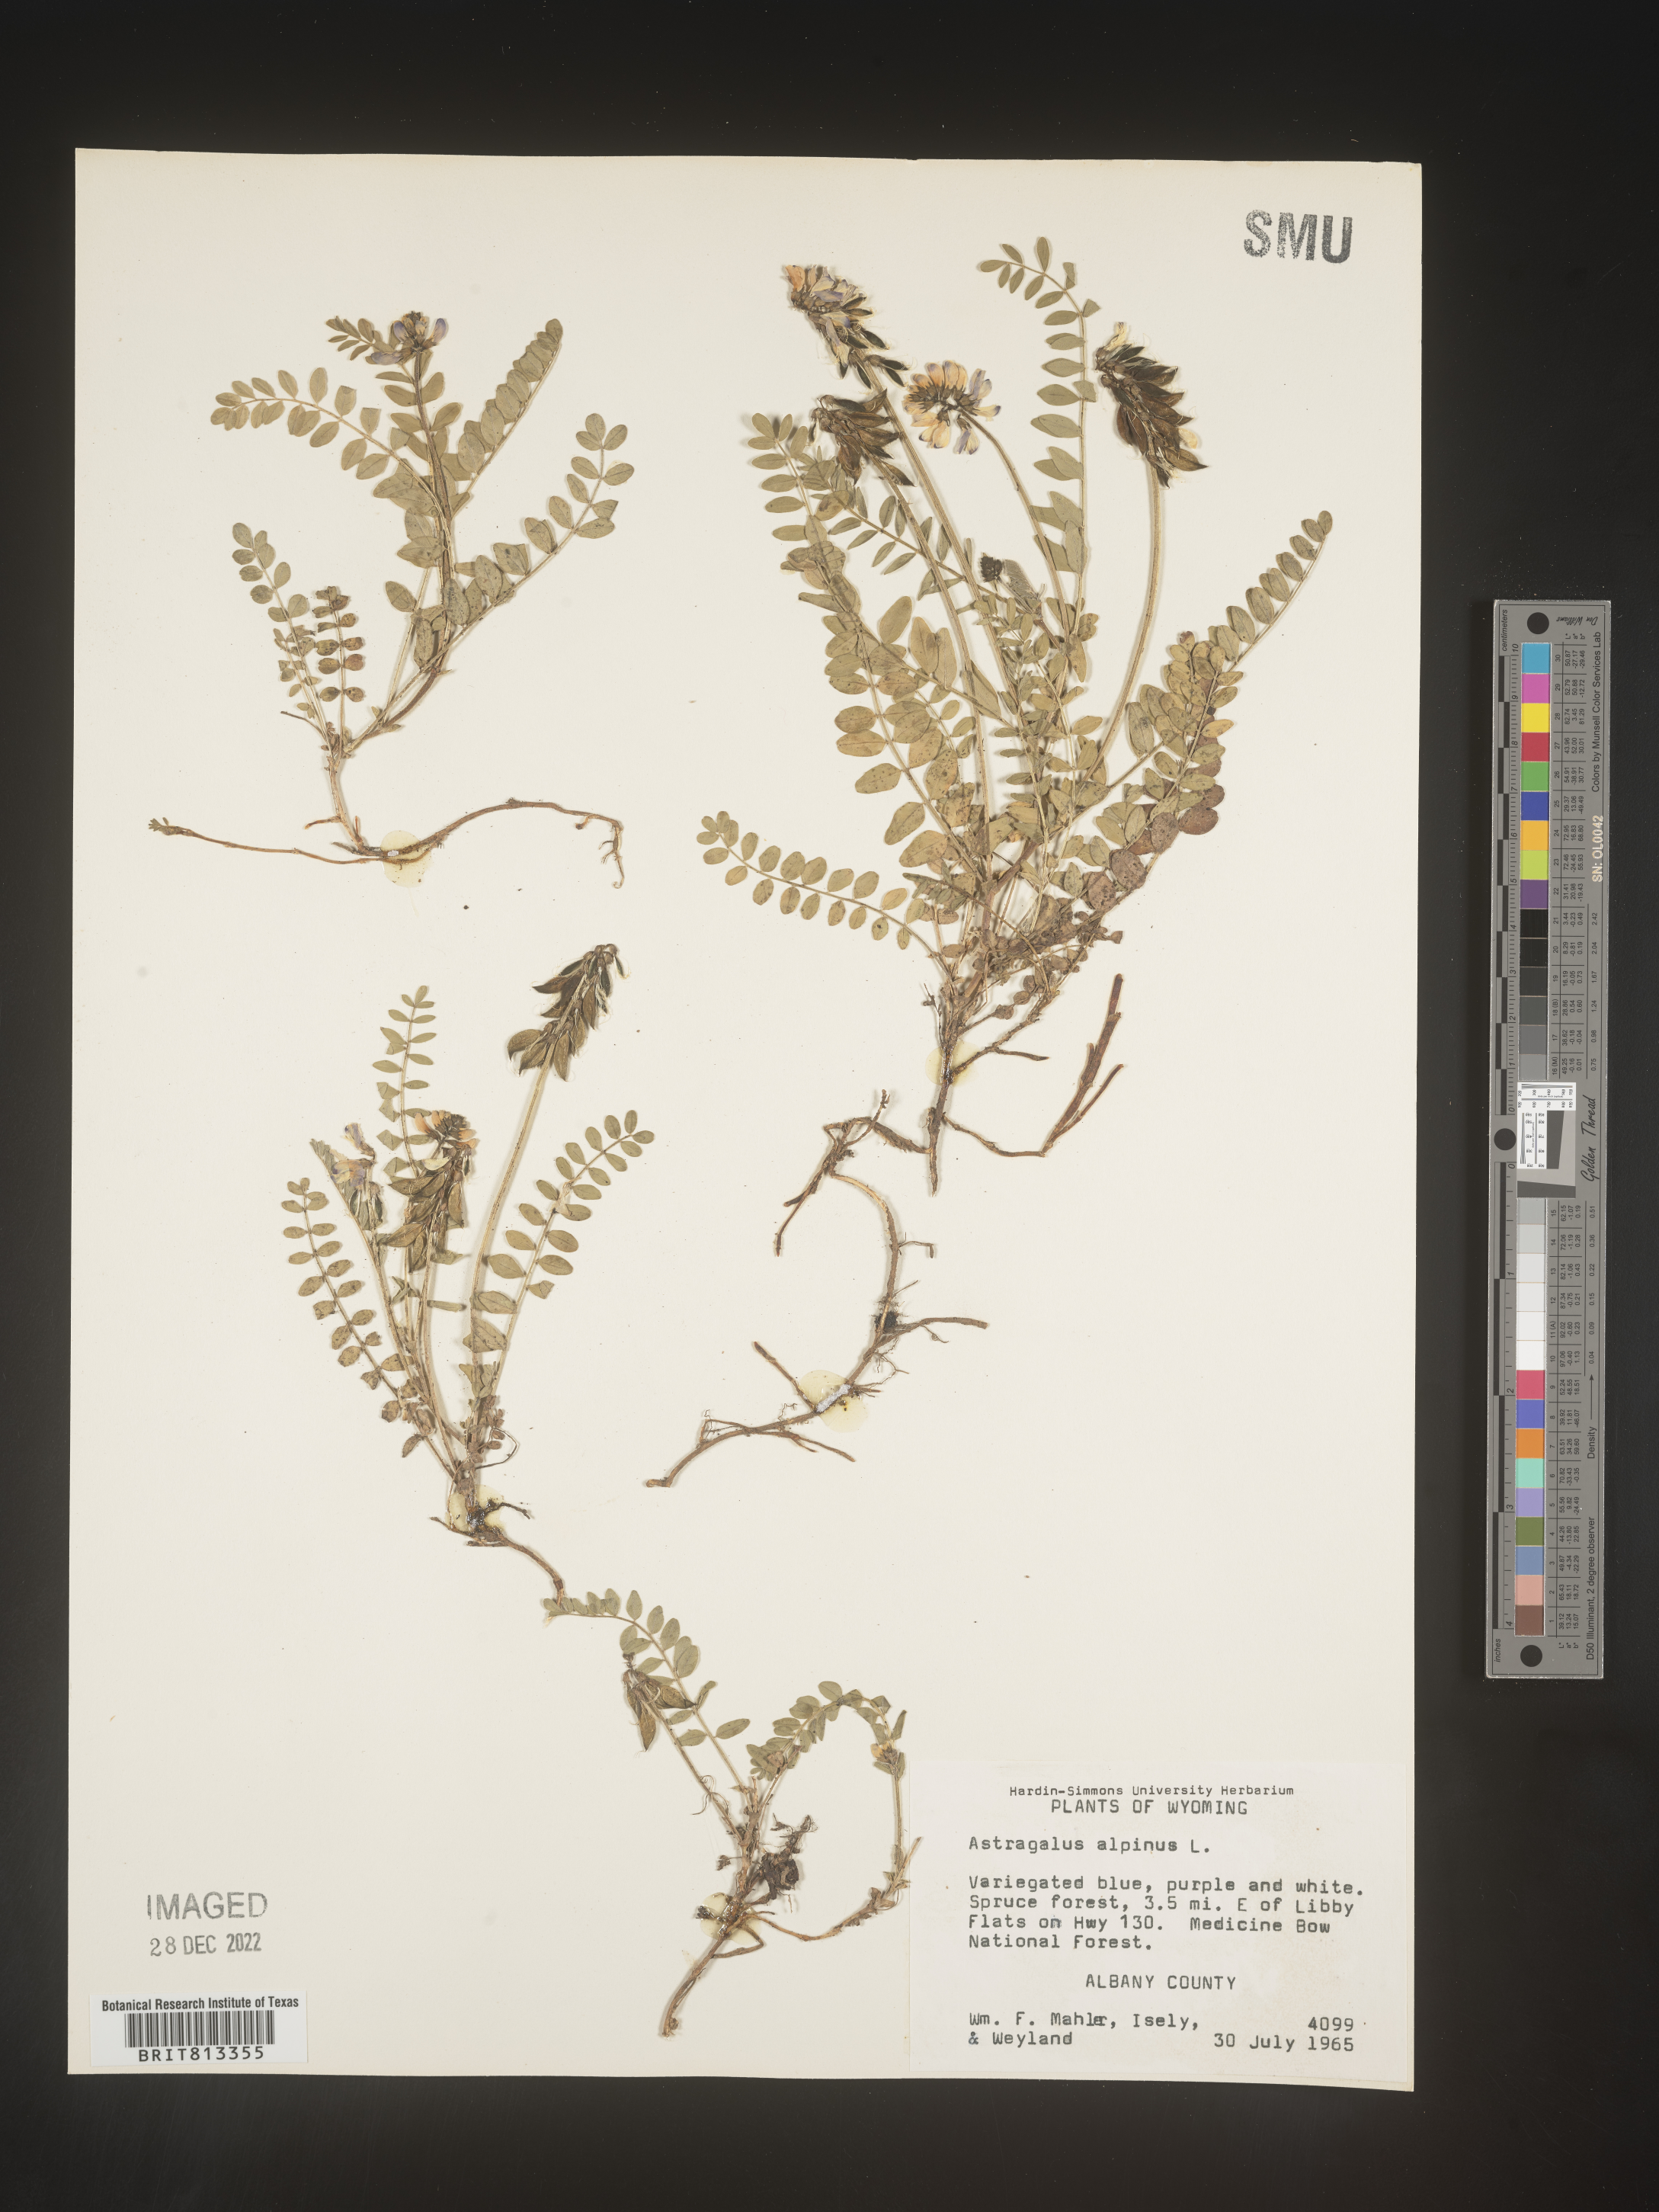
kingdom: Plantae
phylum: Tracheophyta
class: Magnoliopsida
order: Fabales
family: Fabaceae
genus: Astragalus
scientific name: Astragalus alpinus
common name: Alpine milk-vetch
